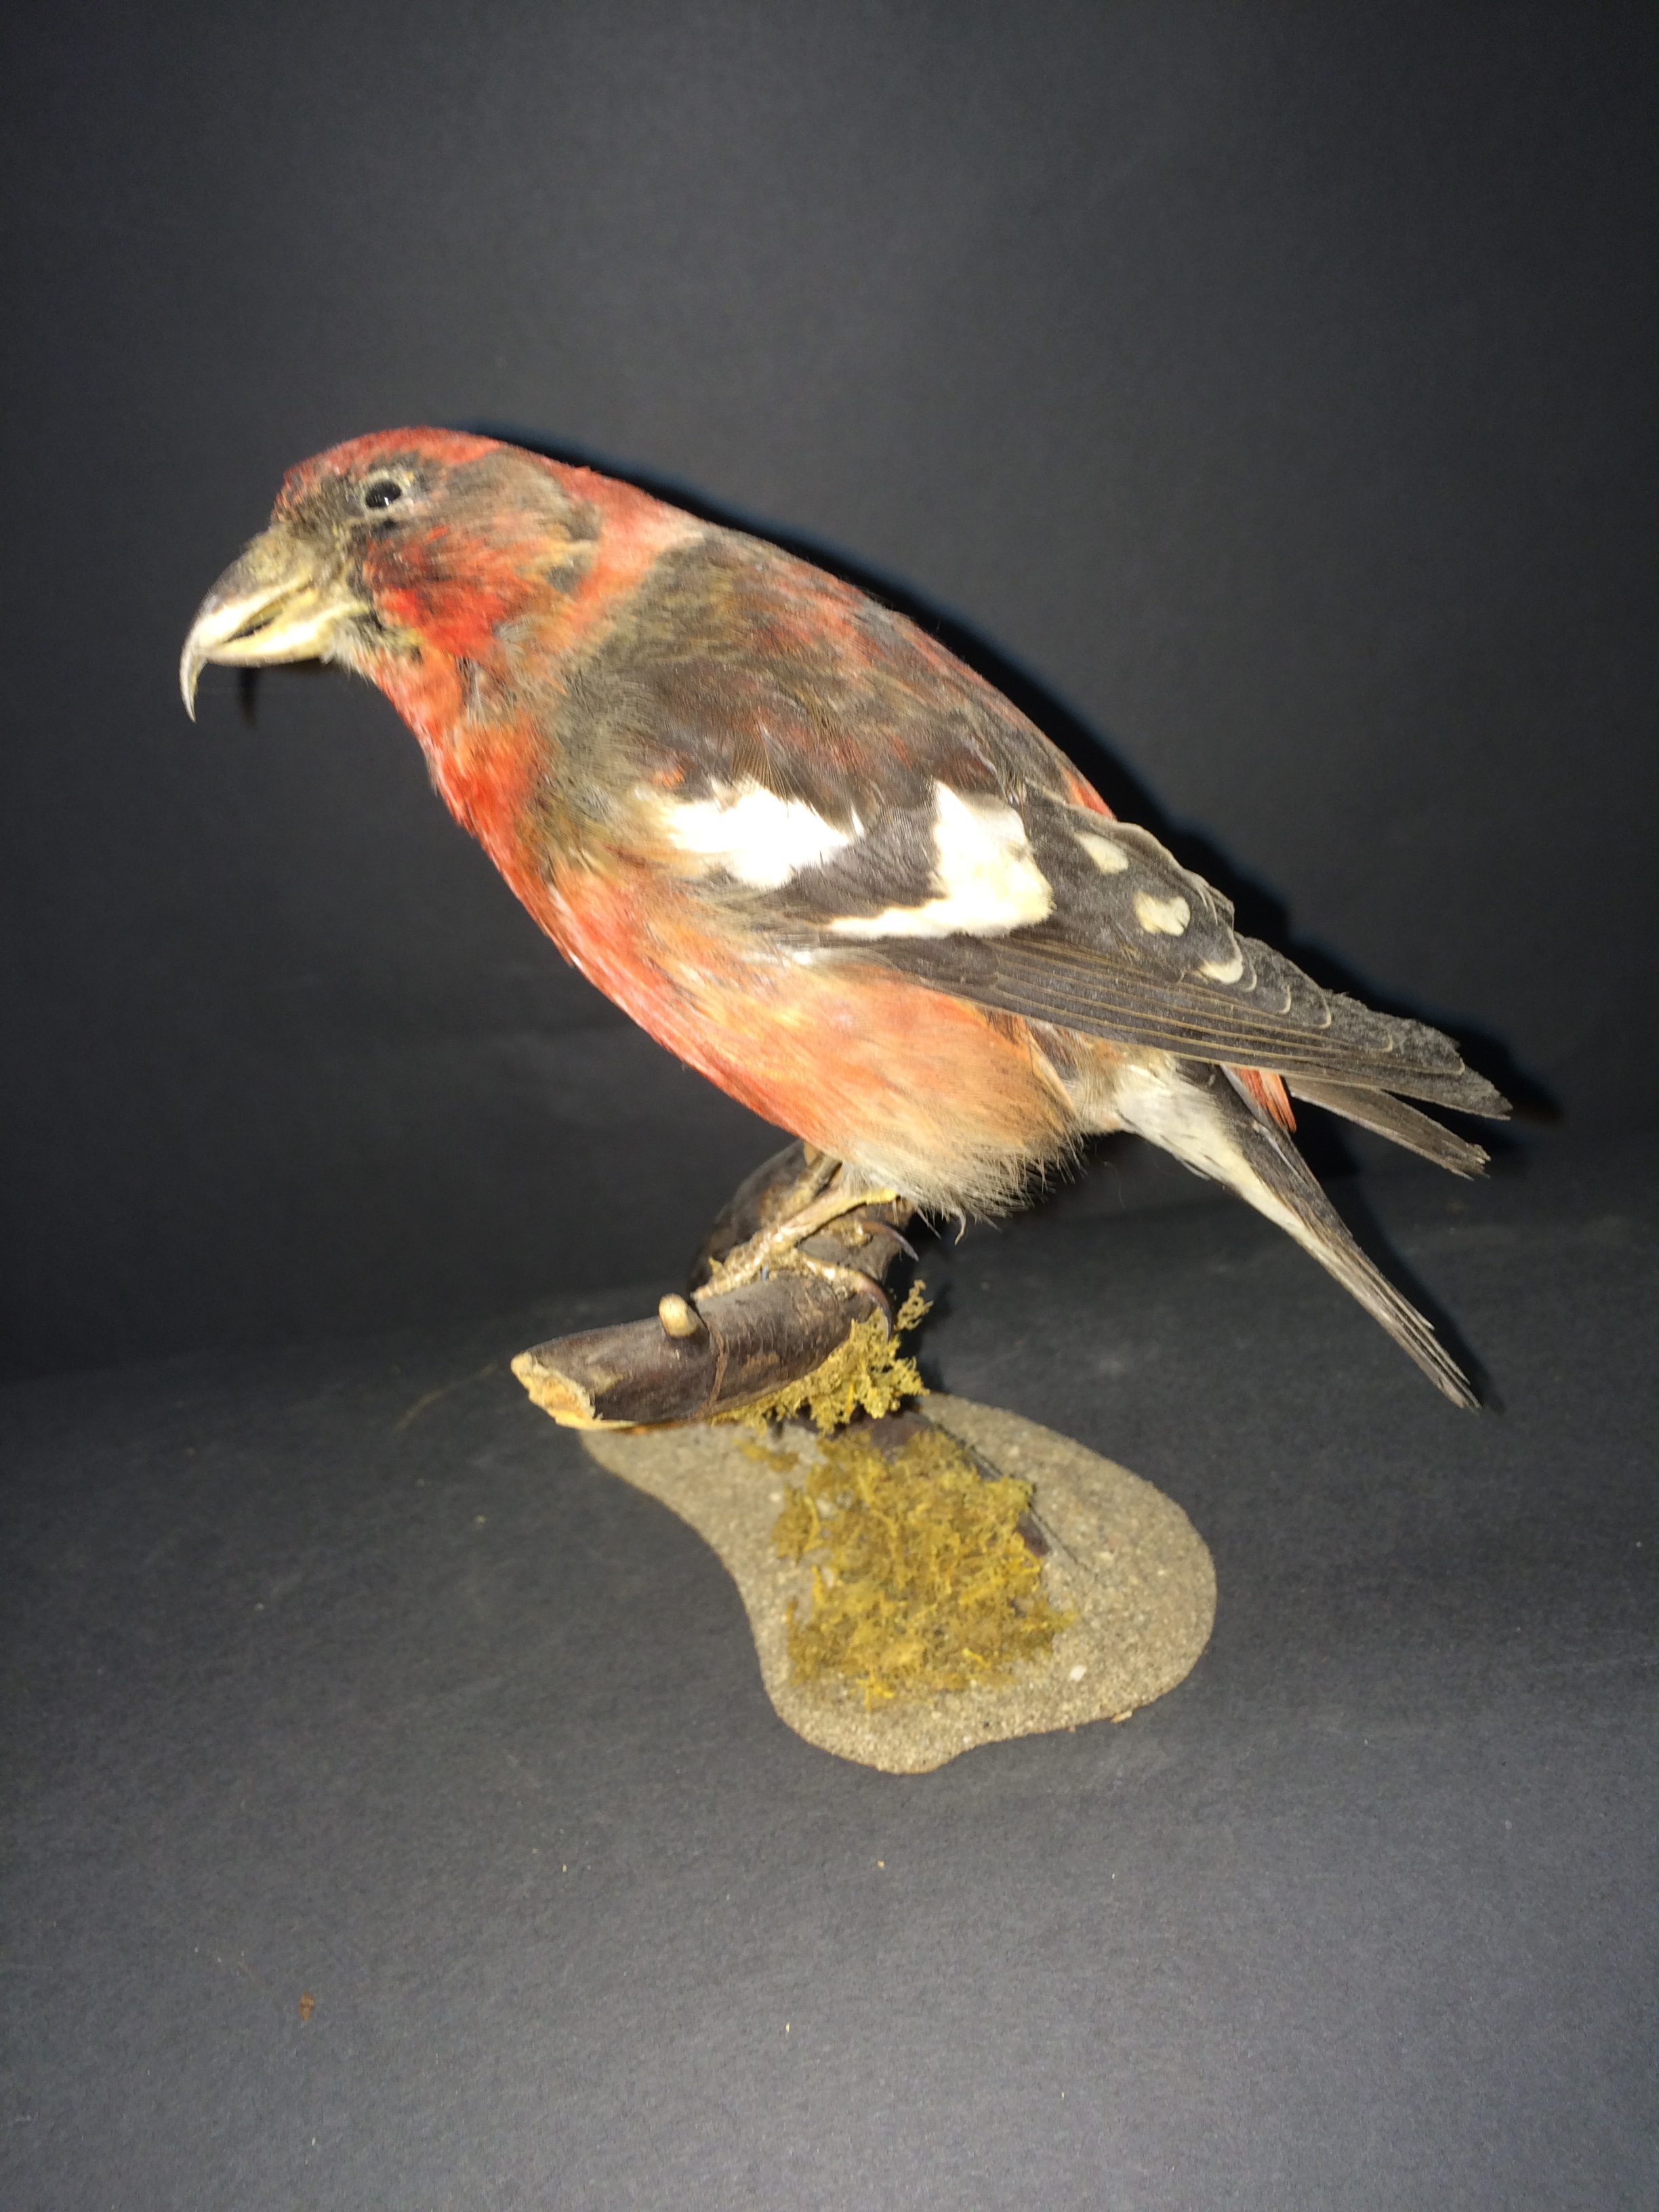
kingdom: Animalia
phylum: Chordata
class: Aves
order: Passeriformes
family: Fringillidae
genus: Loxia
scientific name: Loxia leucoptera
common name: Two-barred crossbill
